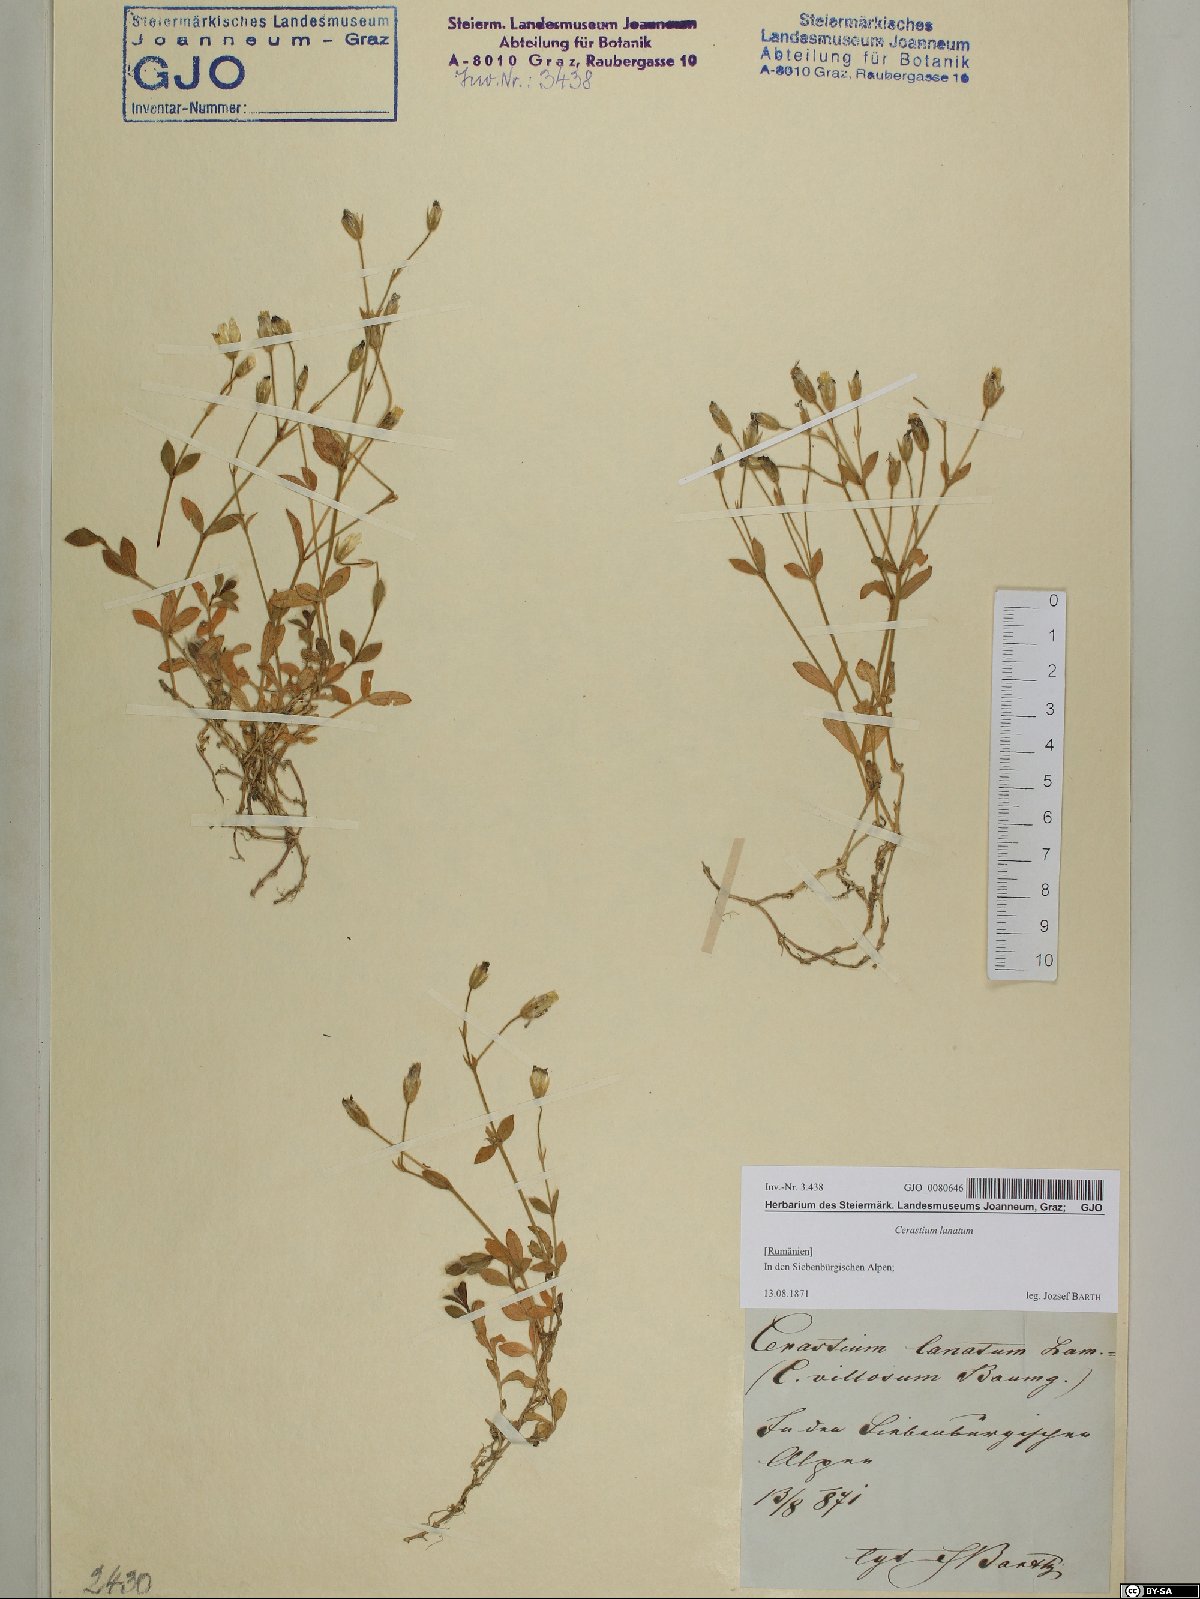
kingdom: Plantae
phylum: Tracheophyta
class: Magnoliopsida
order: Caryophyllales
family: Caryophyllaceae
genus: Cerastium
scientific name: Cerastium alpinum
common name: Alpine mouse-ear
